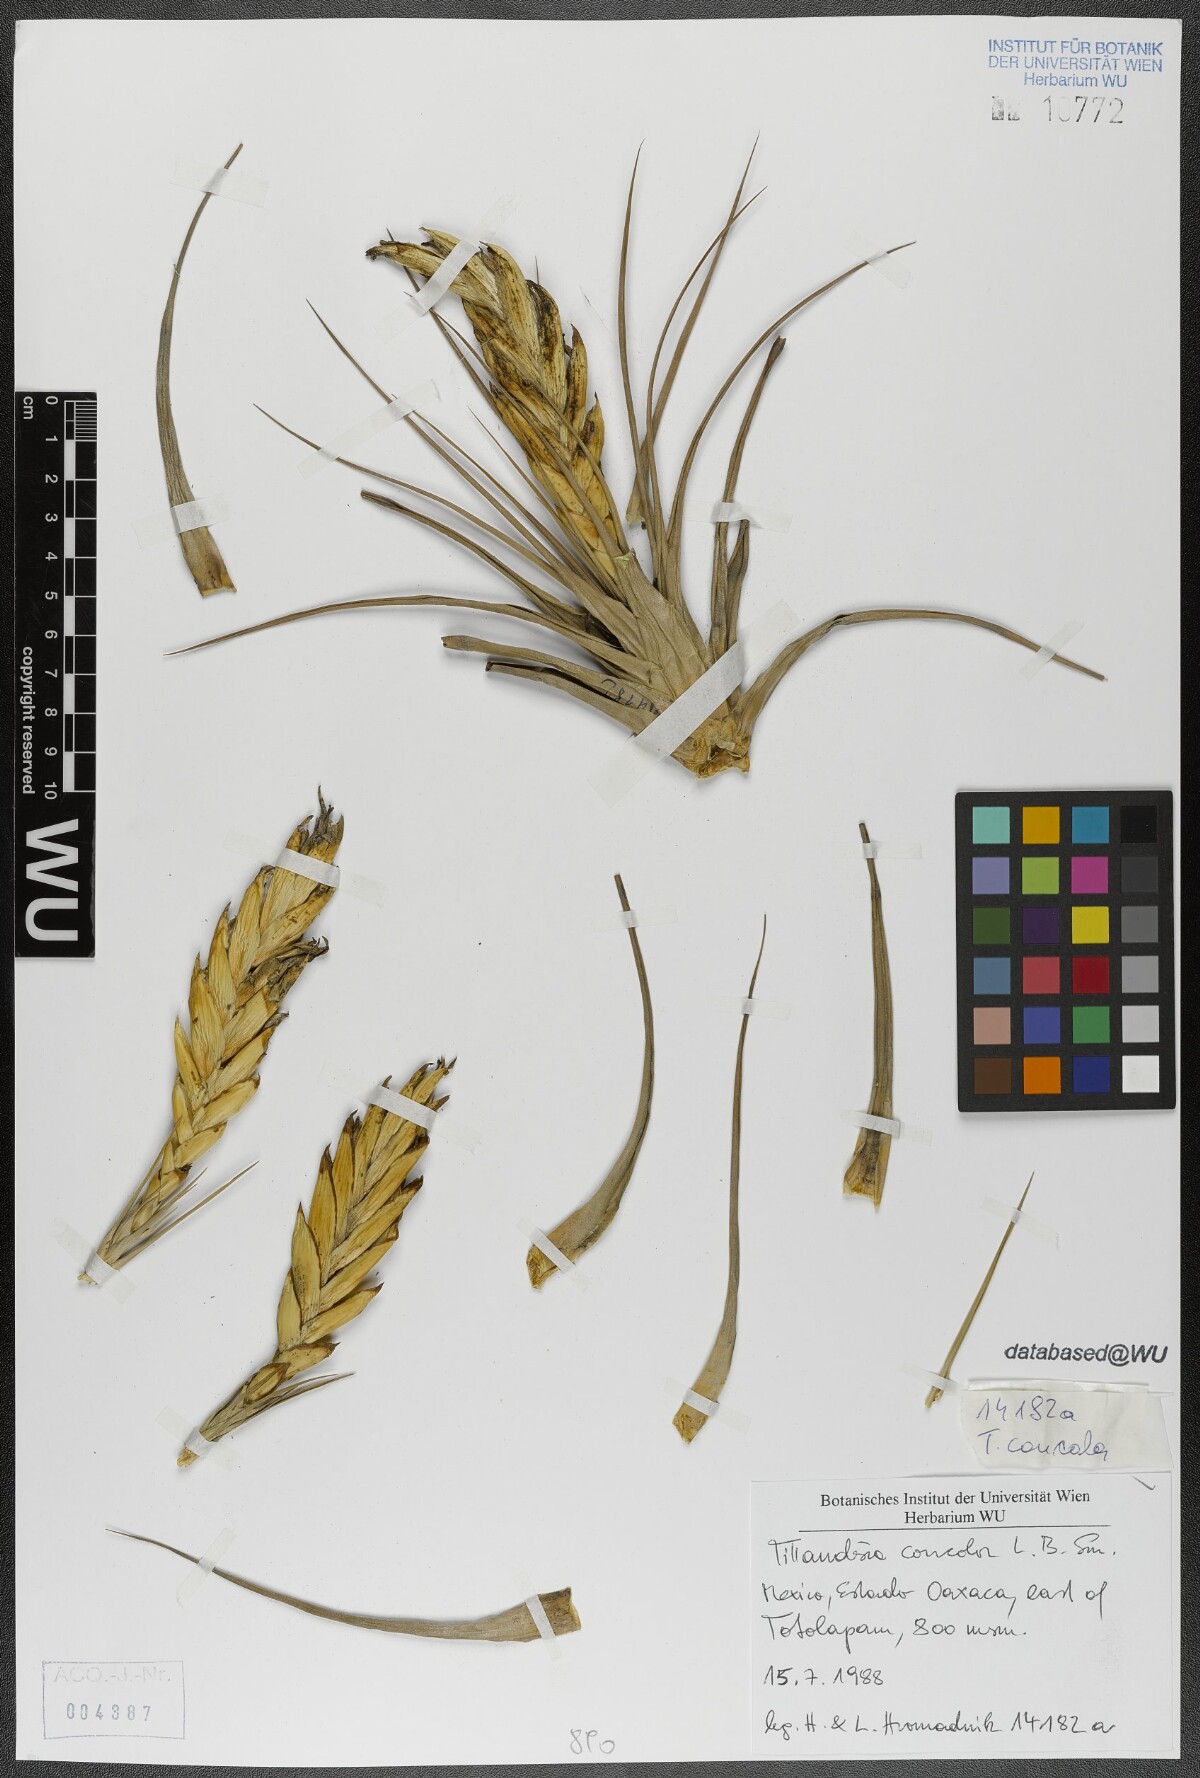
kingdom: Plantae
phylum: Tracheophyta
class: Liliopsida
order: Poales
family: Bromeliaceae
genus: Tillandsia
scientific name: Tillandsia concolor
